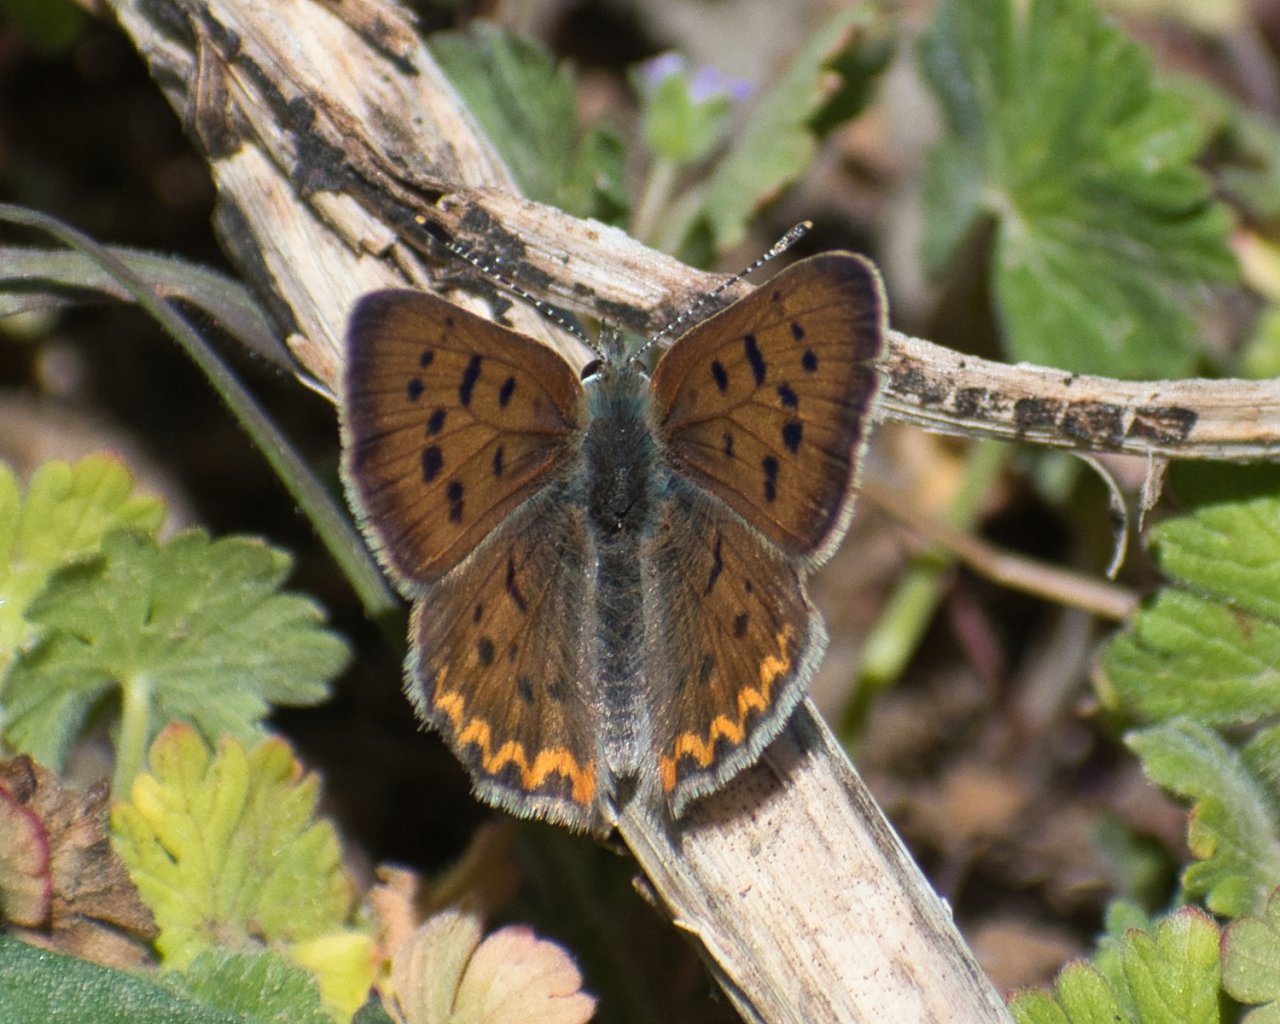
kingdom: Animalia
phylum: Arthropoda
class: Insecta
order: Lepidoptera
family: Sesiidae
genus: Sesia
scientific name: Sesia Lycaena helloides
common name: Purplish Copper
